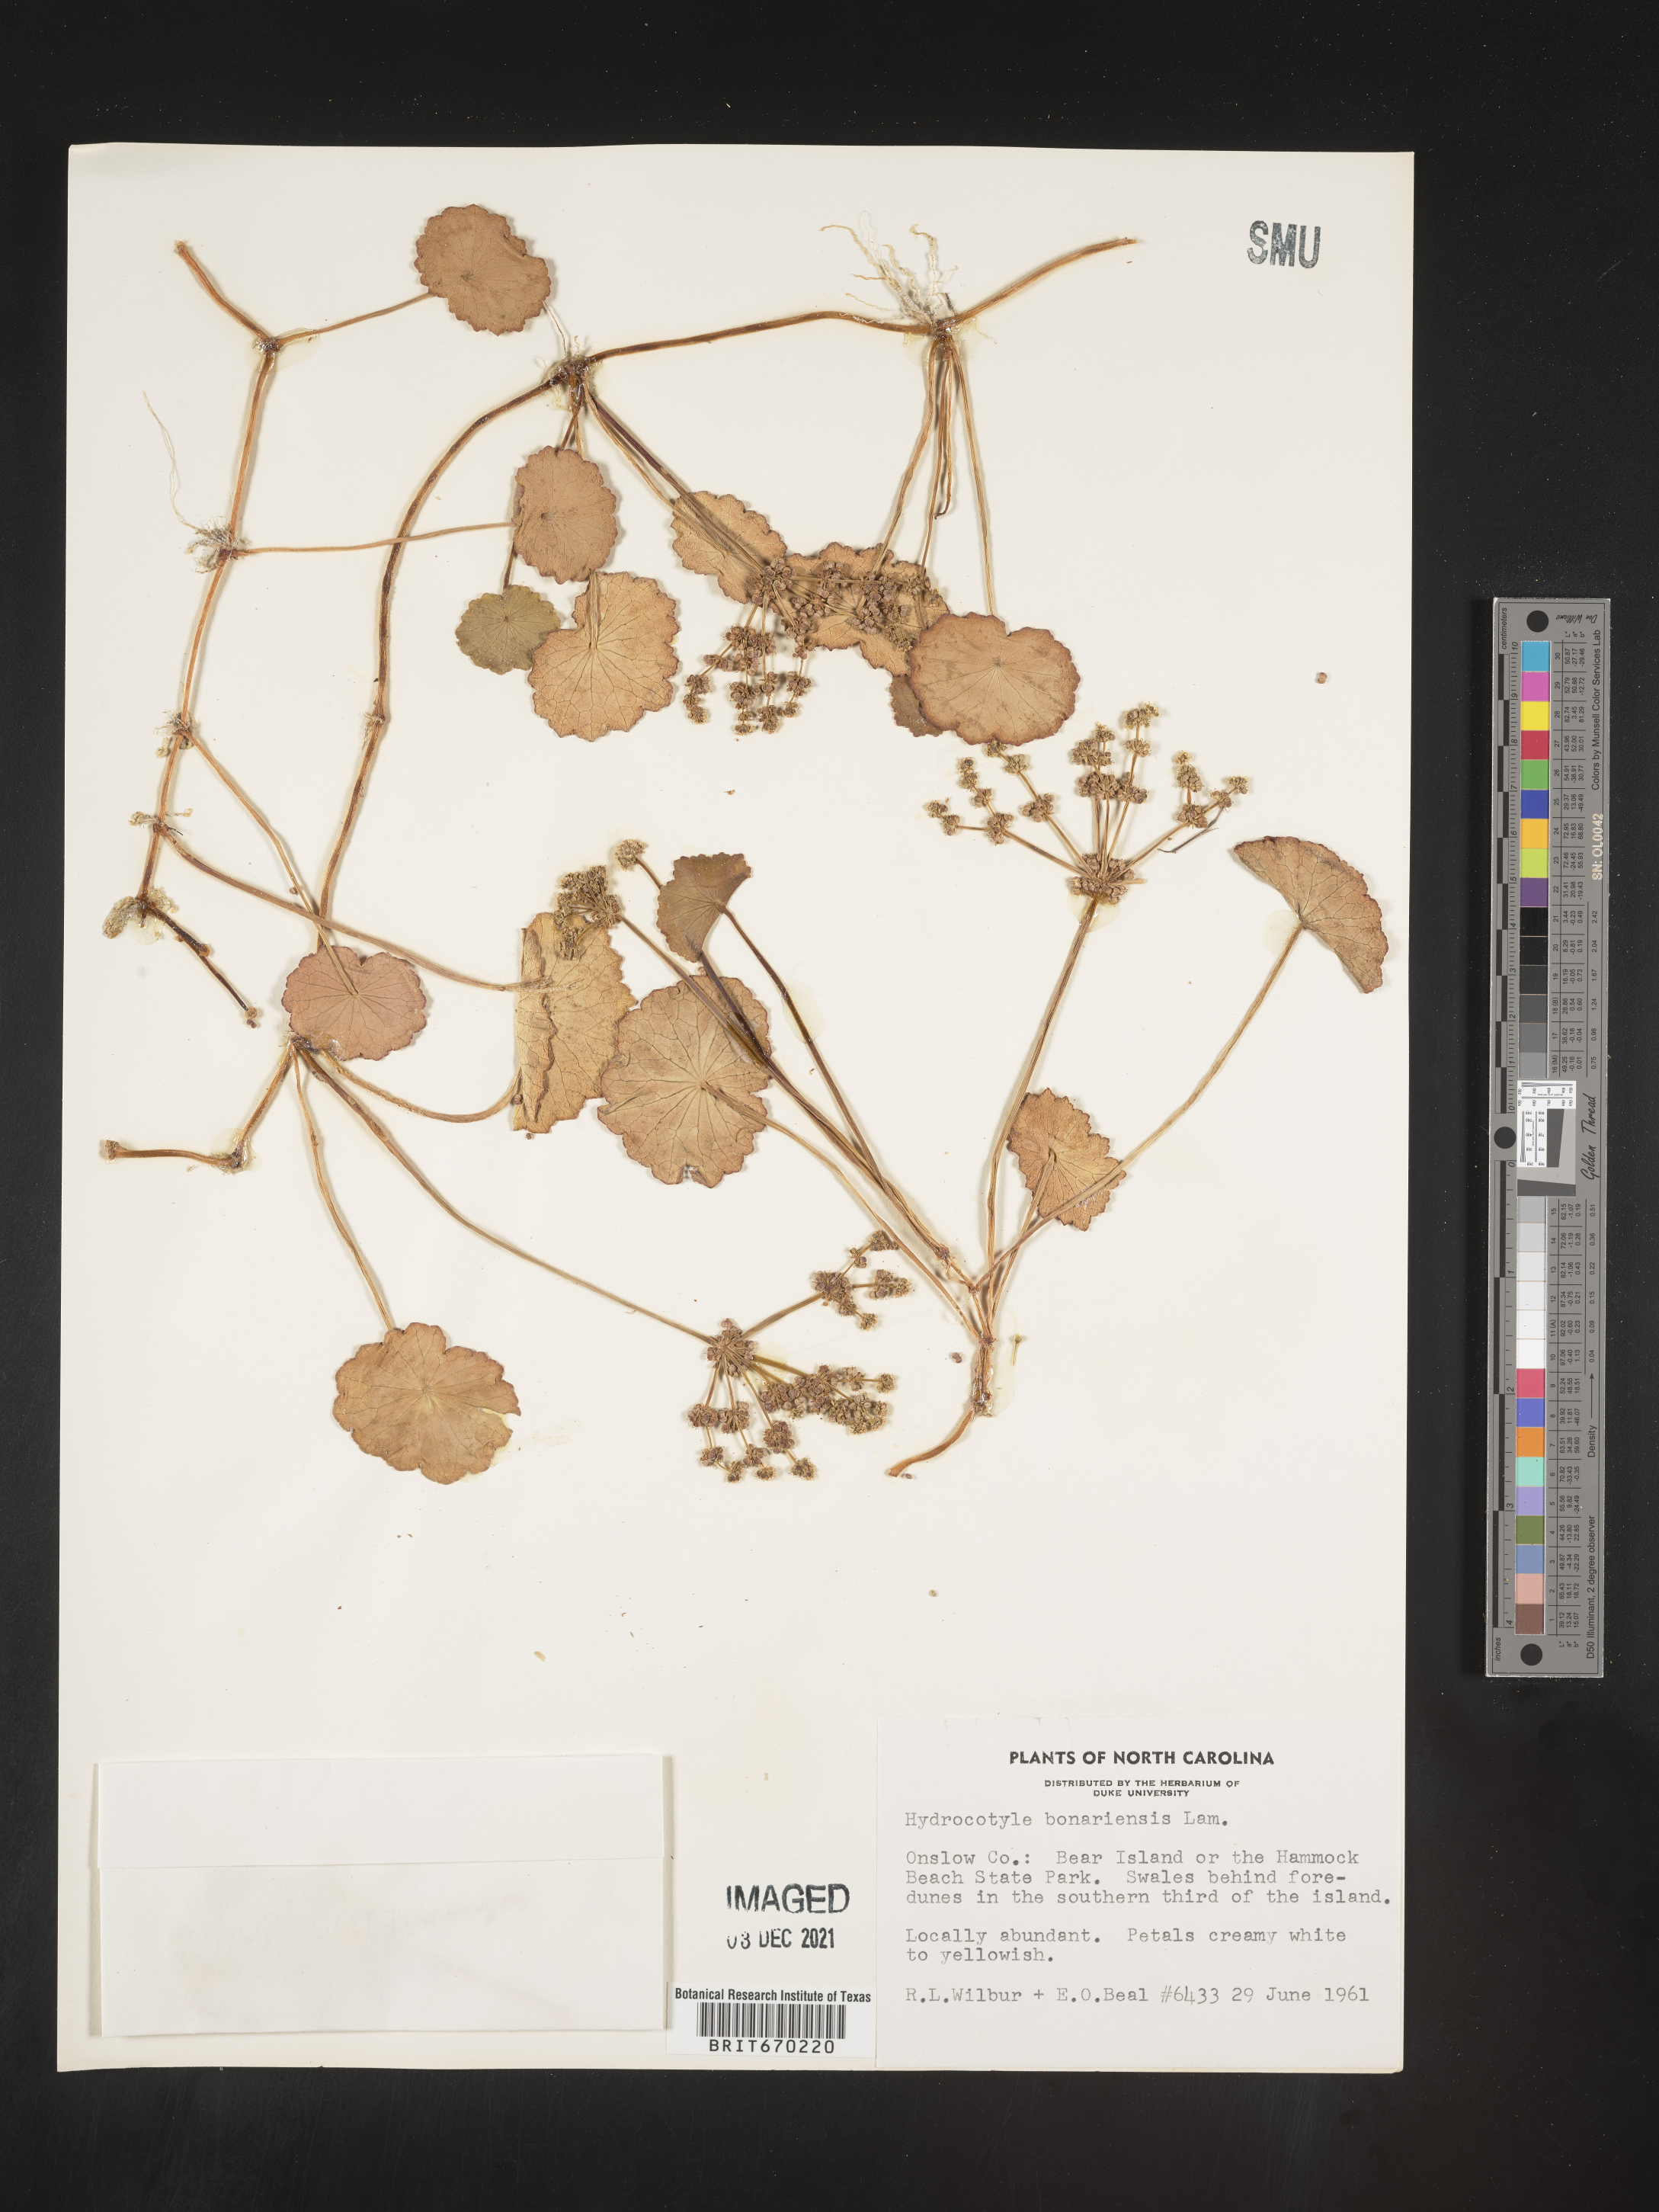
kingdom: Plantae
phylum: Tracheophyta
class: Magnoliopsida
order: Apiales
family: Araliaceae
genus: Hydrocotyle
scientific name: Hydrocotyle bonariensis
